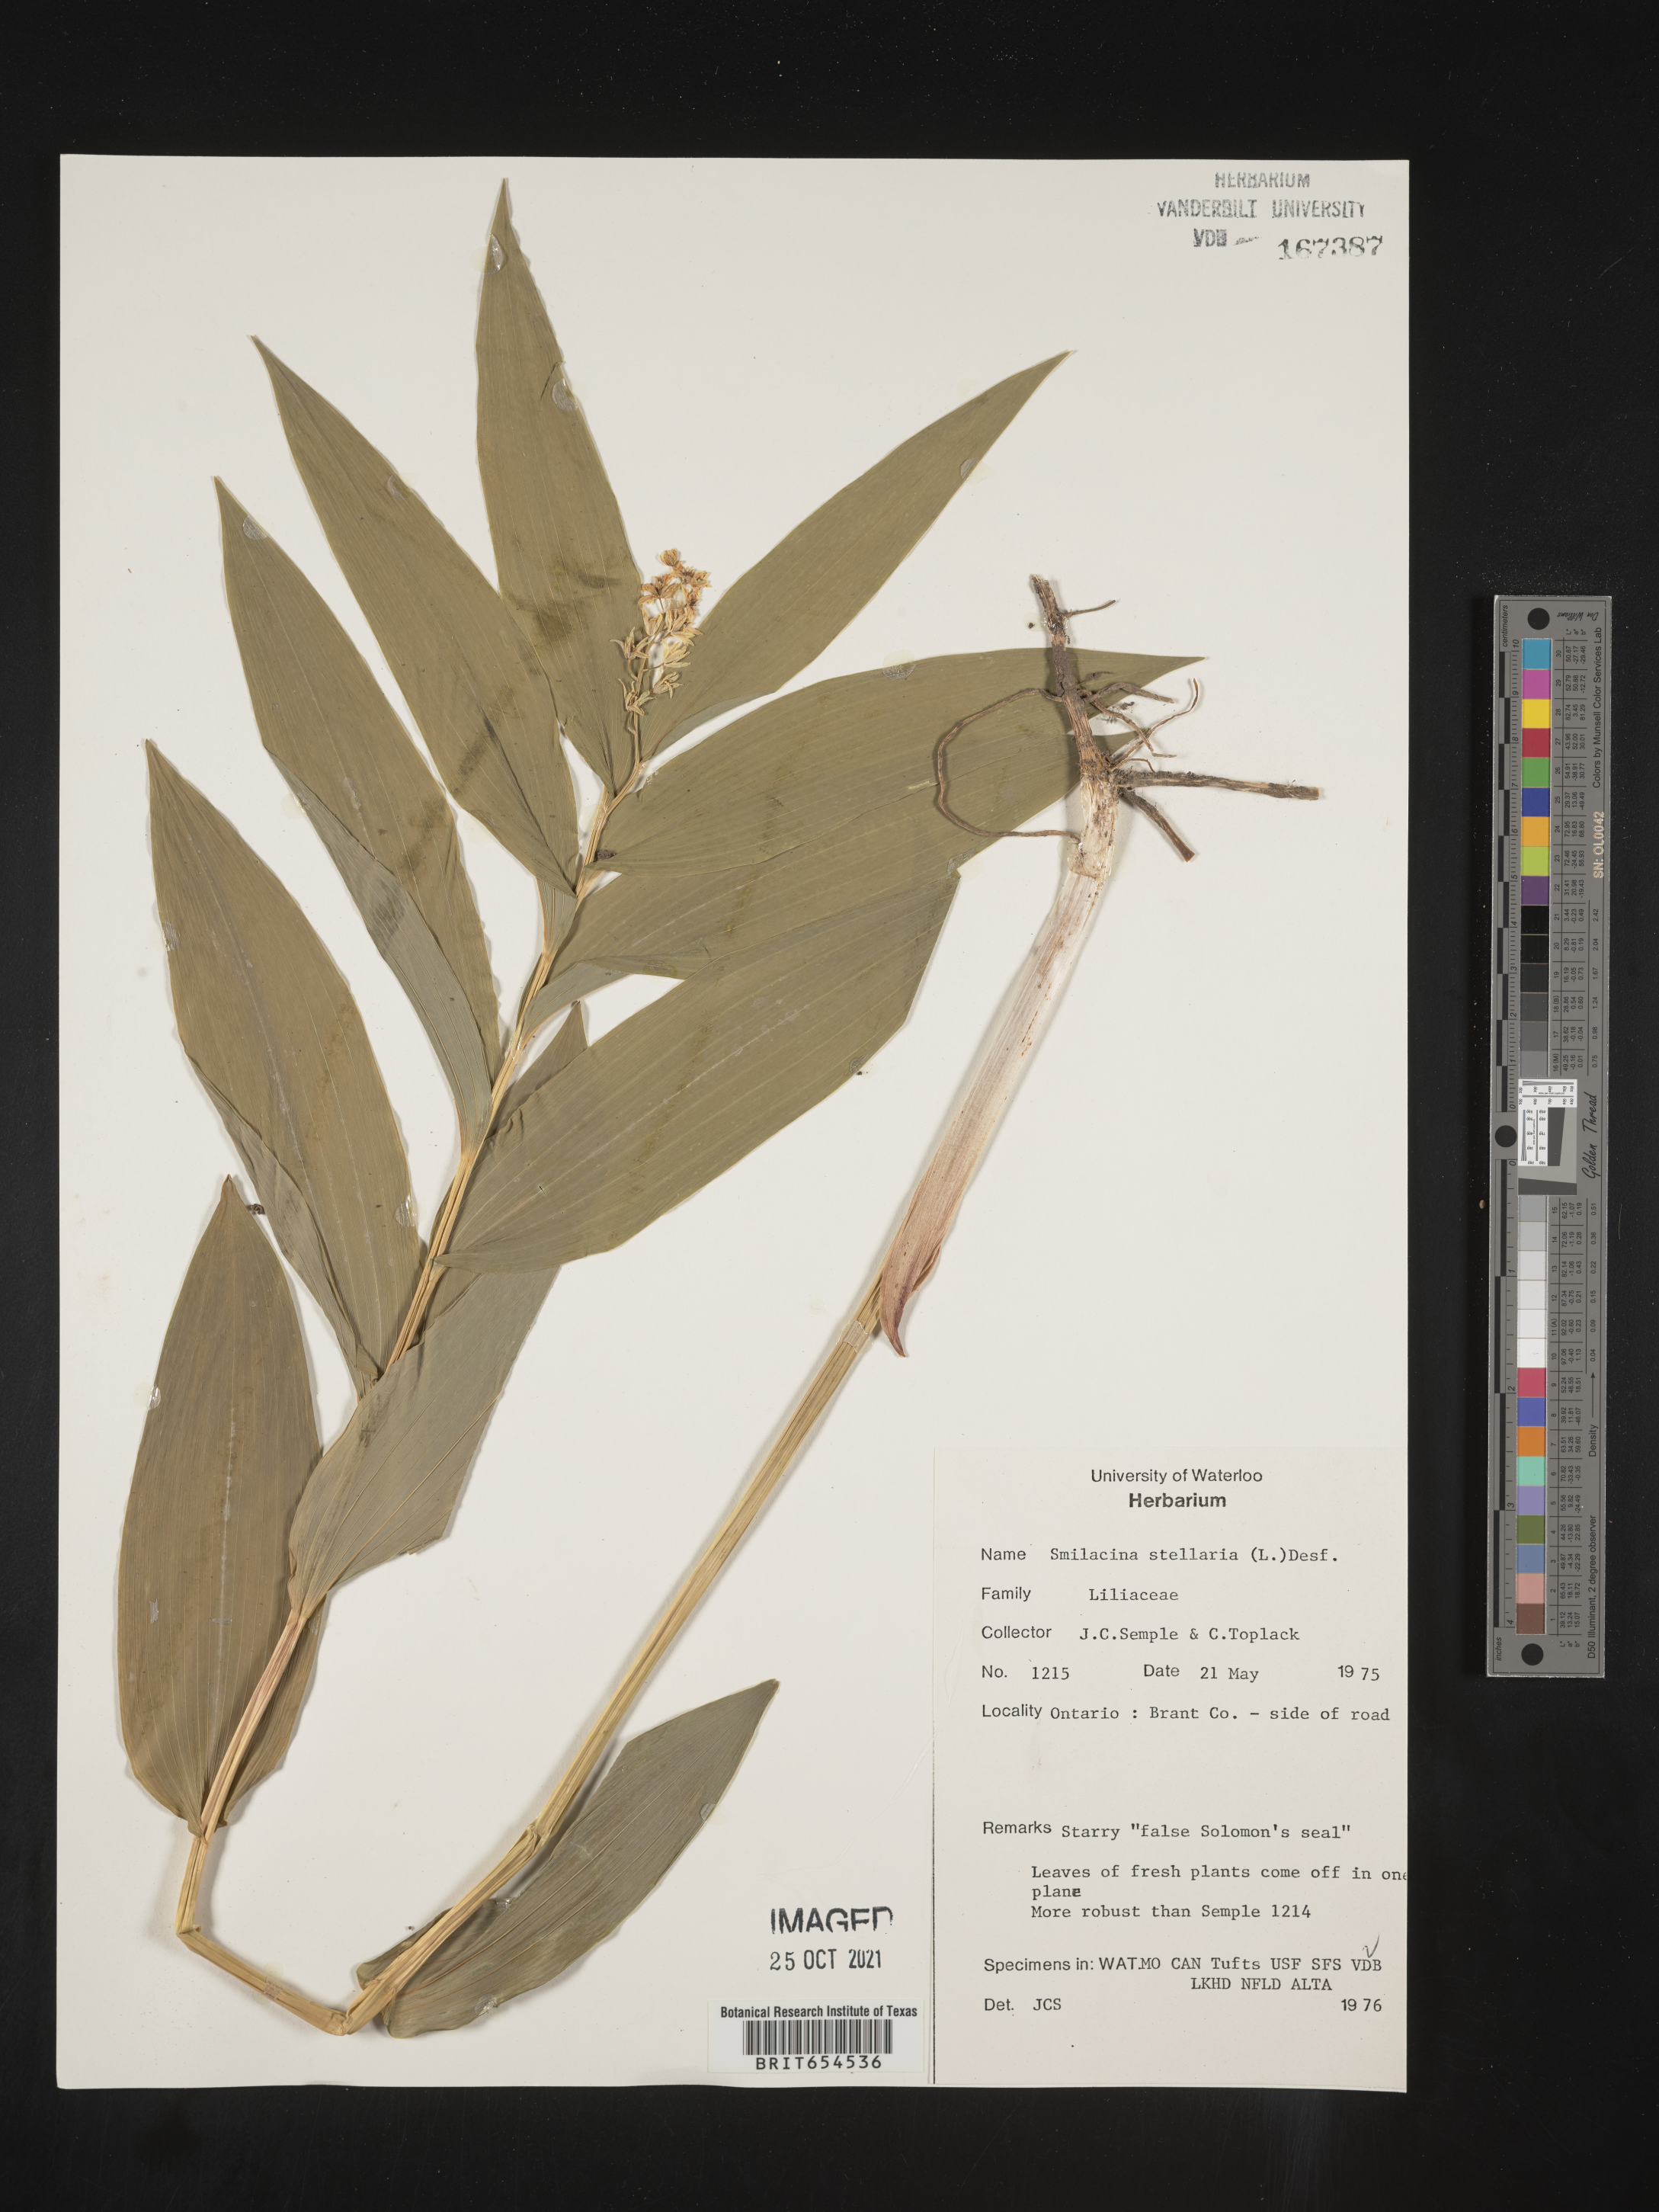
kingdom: Plantae
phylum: Tracheophyta
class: Liliopsida
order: Asparagales
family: Asparagaceae
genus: Maianthemum
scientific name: Maianthemum stellatum
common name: Little false solomon's seal
